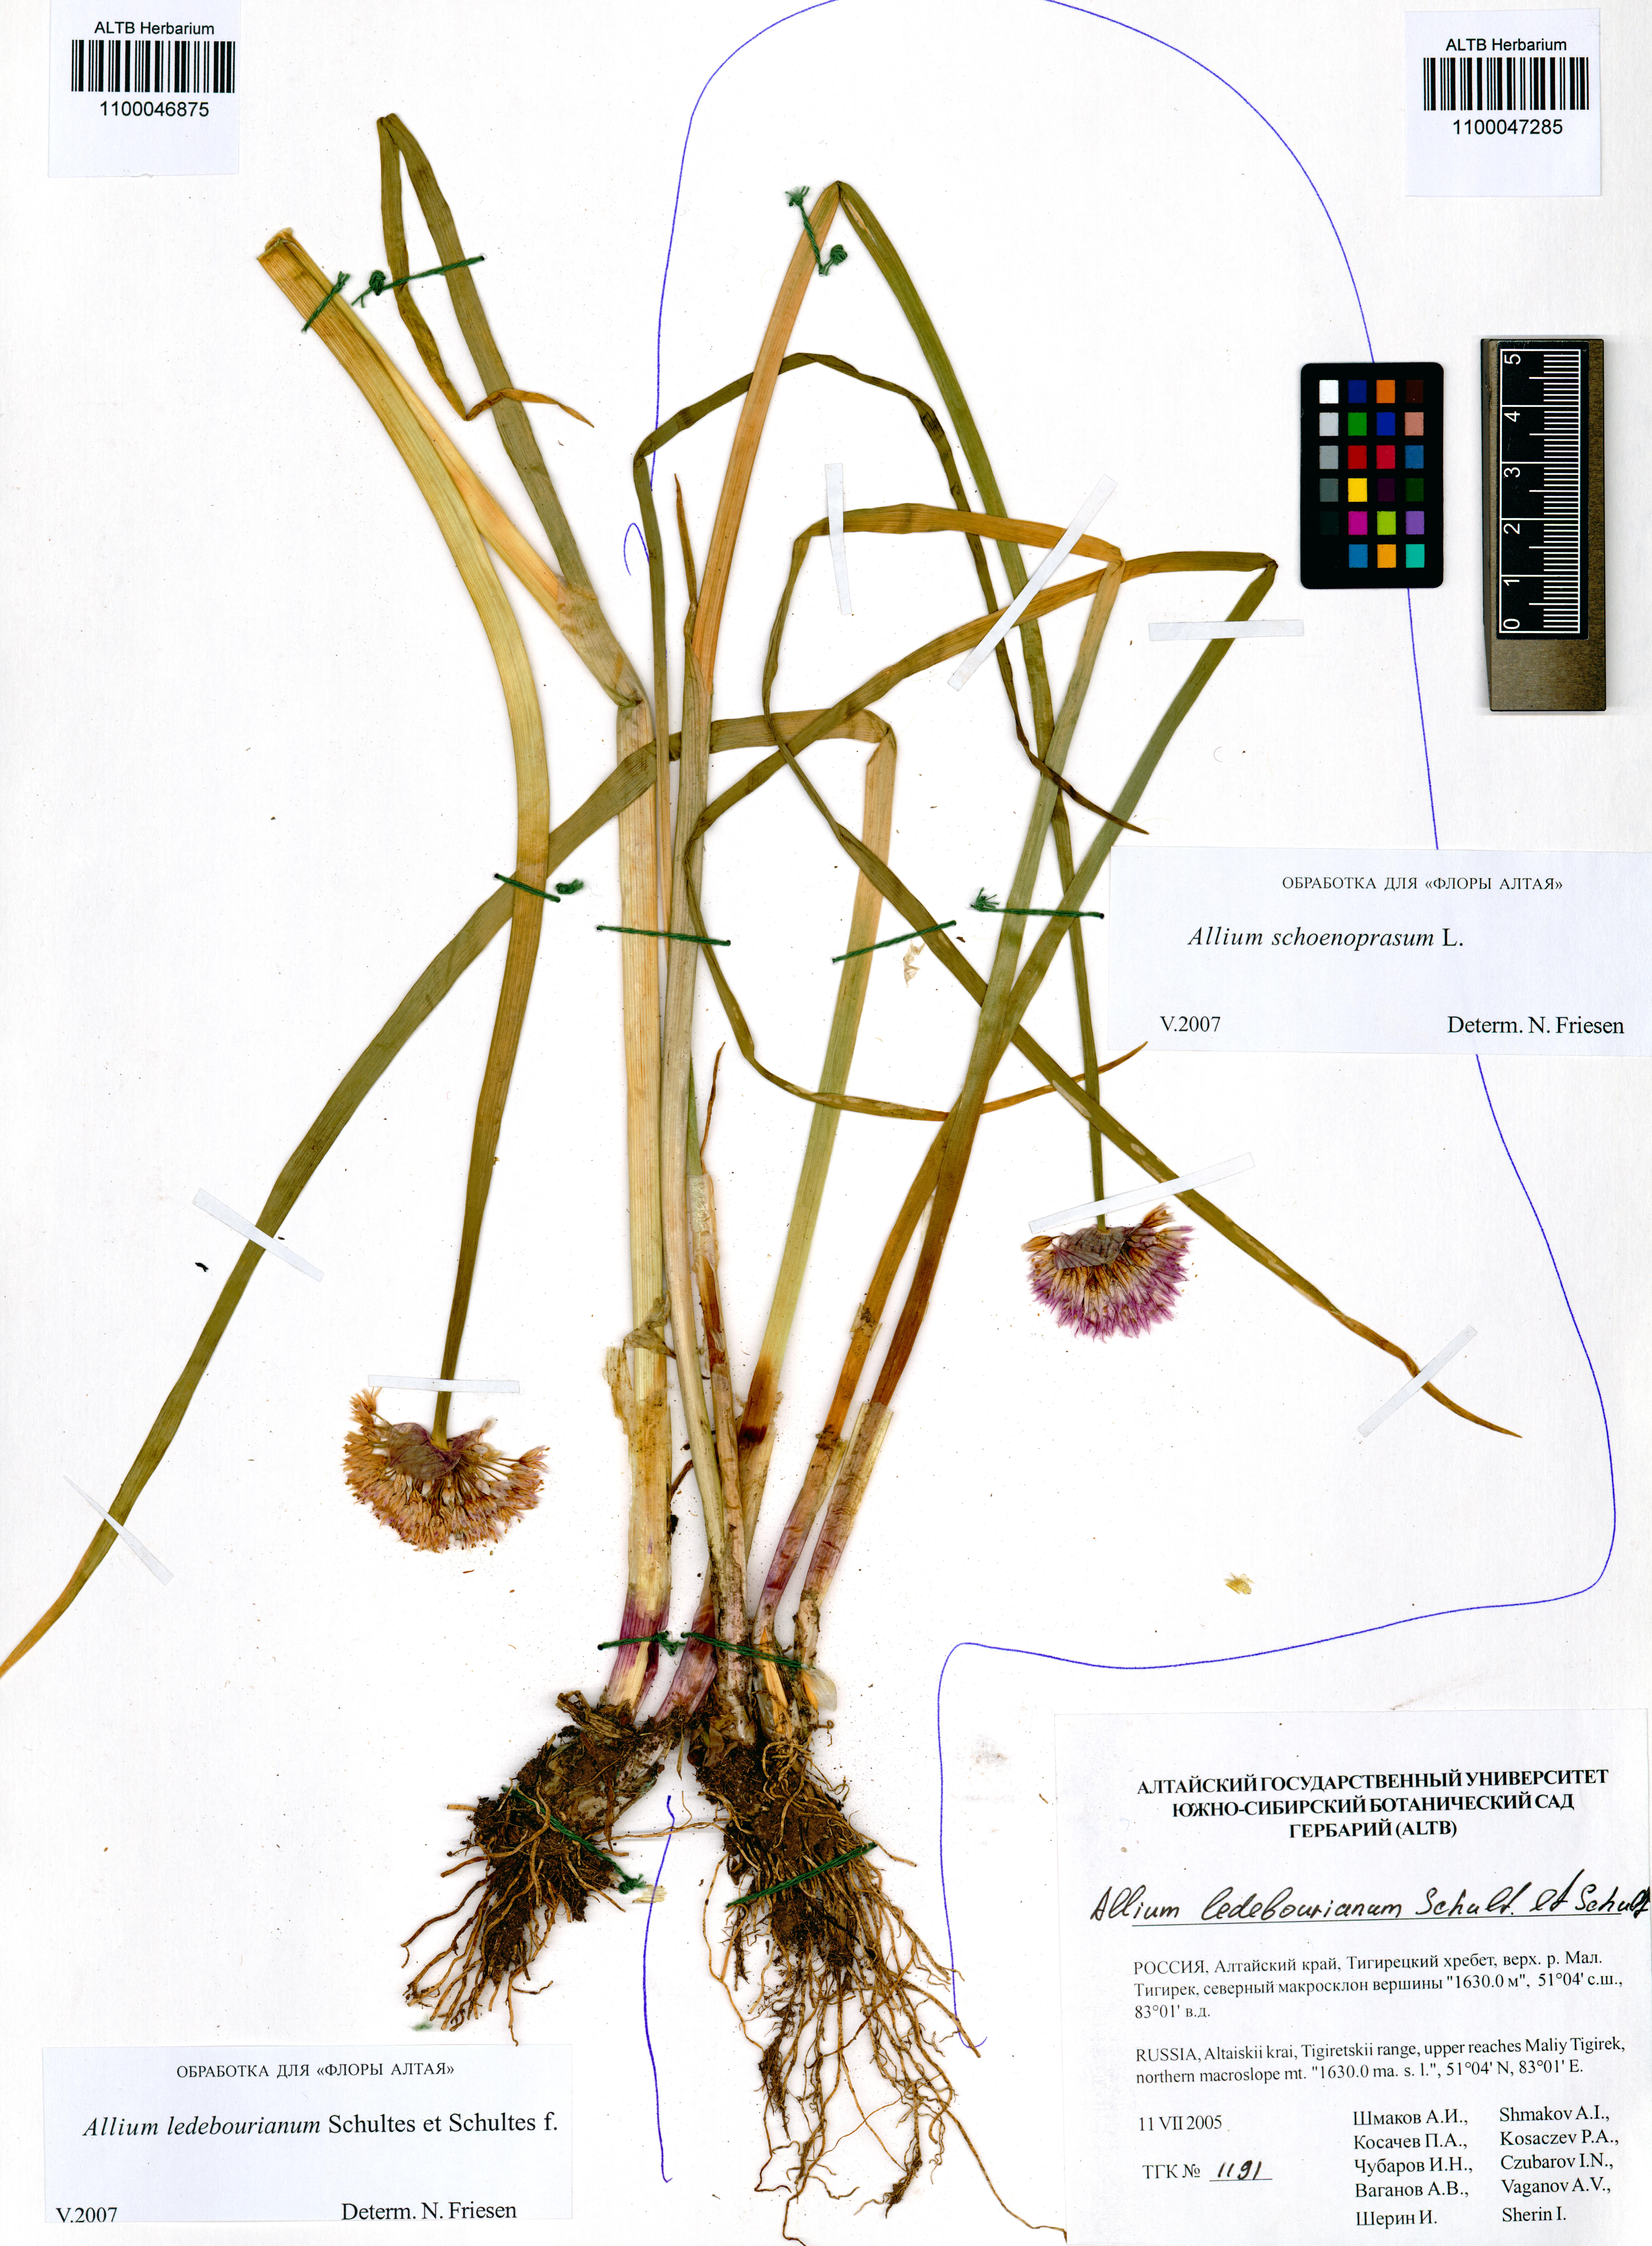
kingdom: Plantae
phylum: Tracheophyta
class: Liliopsida
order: Asparagales
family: Amaryllidaceae
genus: Allium
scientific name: Allium schoenoprasum
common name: Chives
